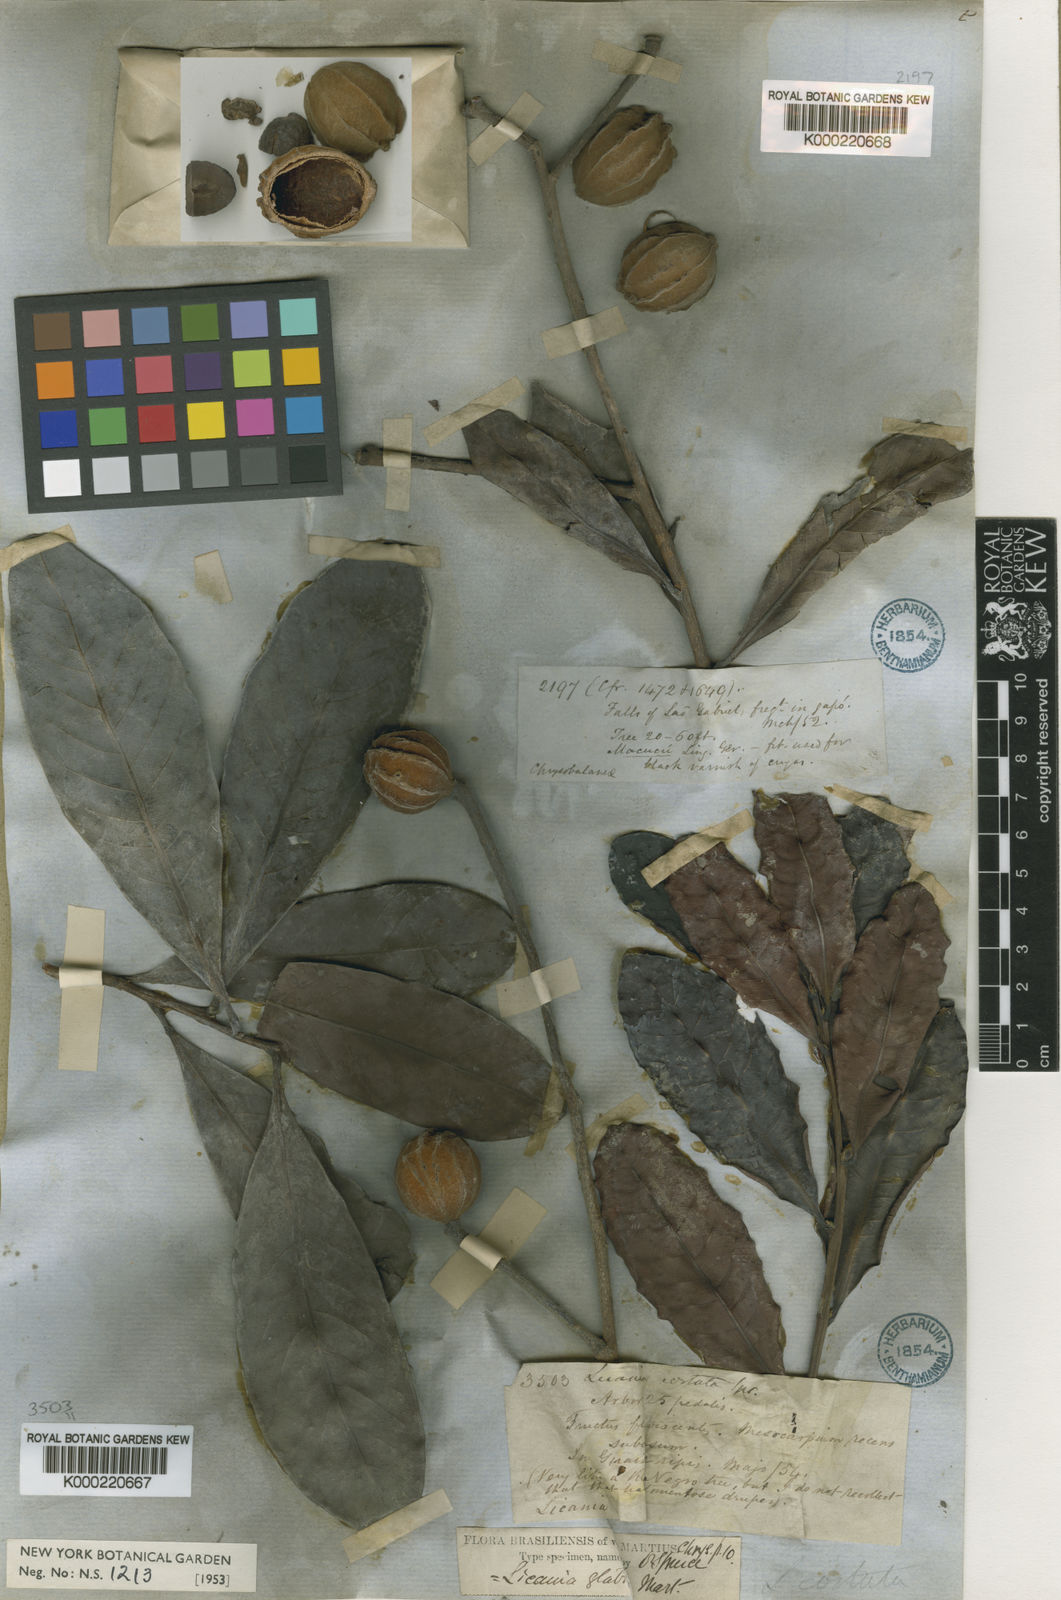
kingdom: Plantae
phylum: Tracheophyta
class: Magnoliopsida
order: Malpighiales
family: Chrysobalanaceae
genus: Hymenopus
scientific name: Hymenopus heteromorphus
